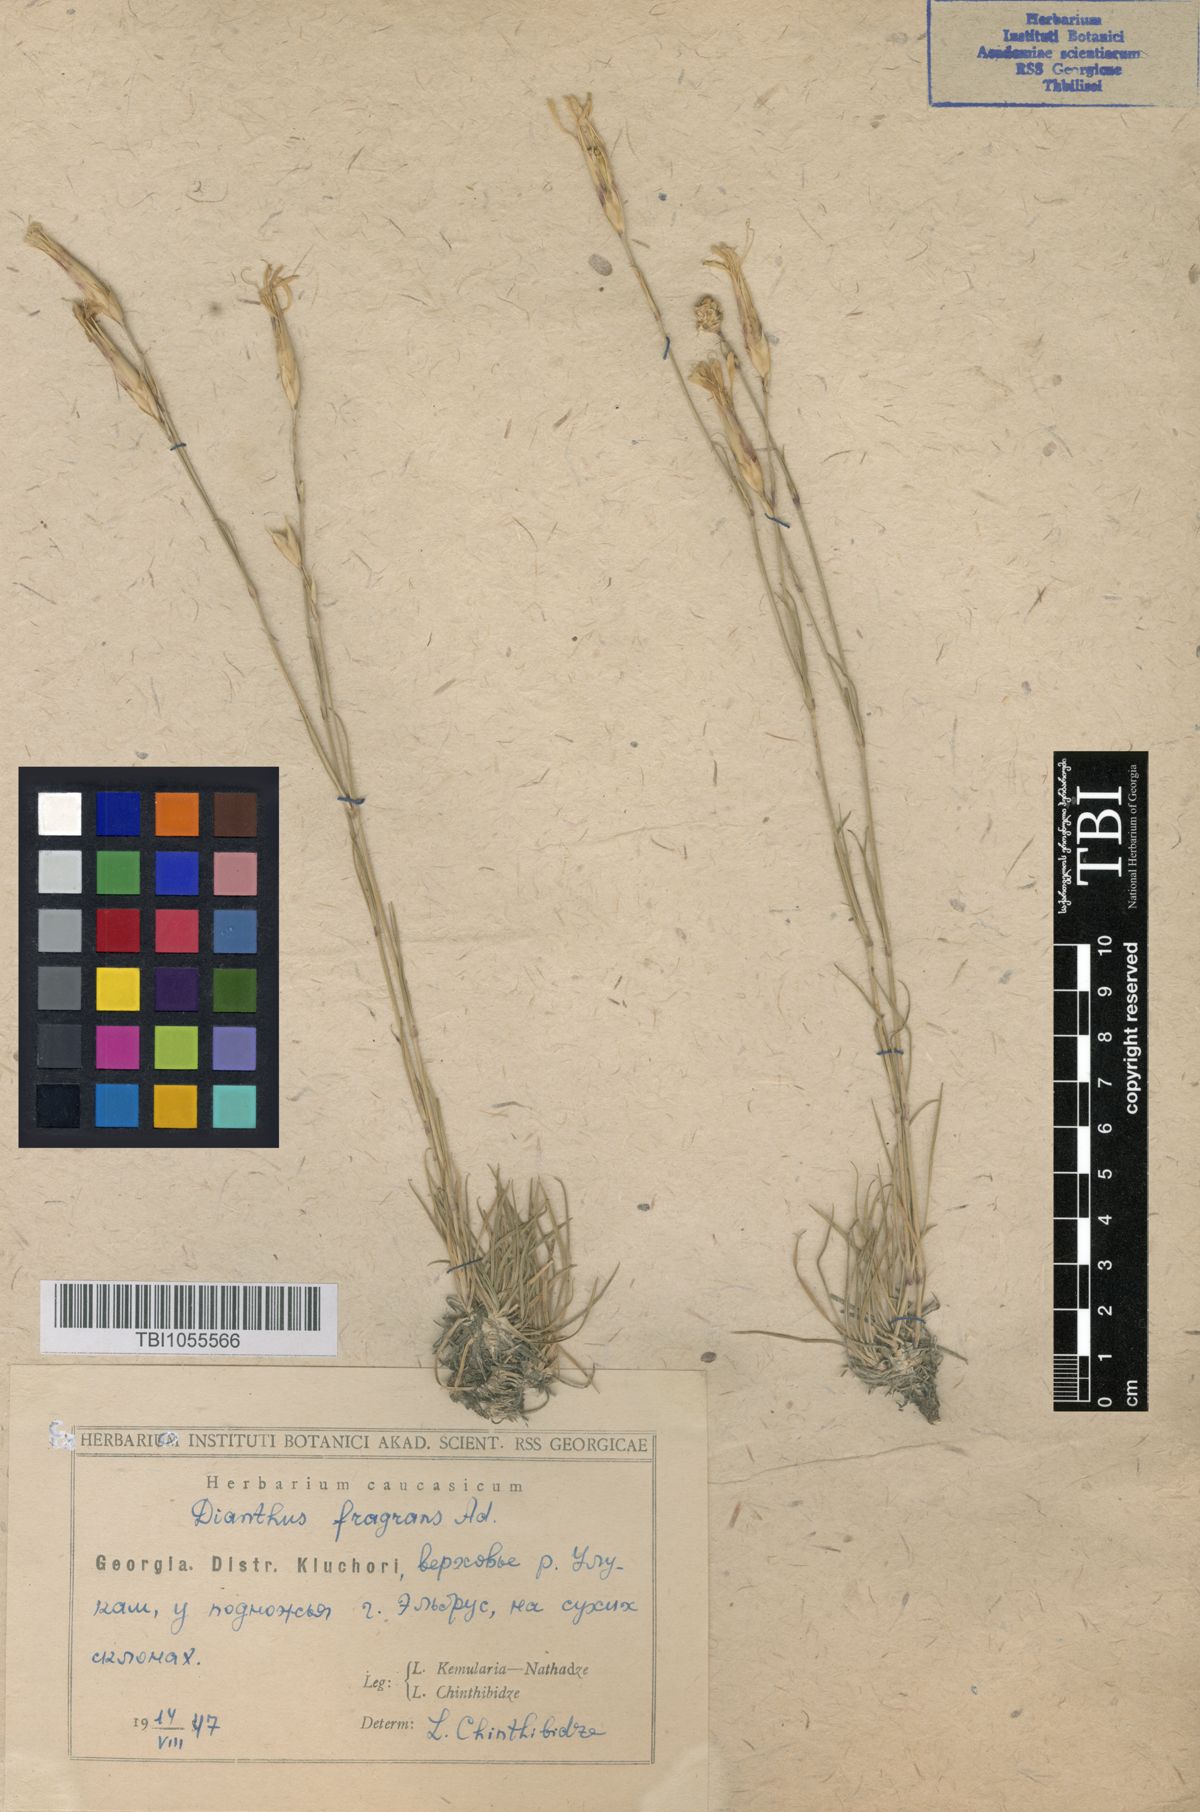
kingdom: Plantae
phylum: Tracheophyta
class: Magnoliopsida
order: Caryophyllales
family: Caryophyllaceae
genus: Dianthus
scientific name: Dianthus
